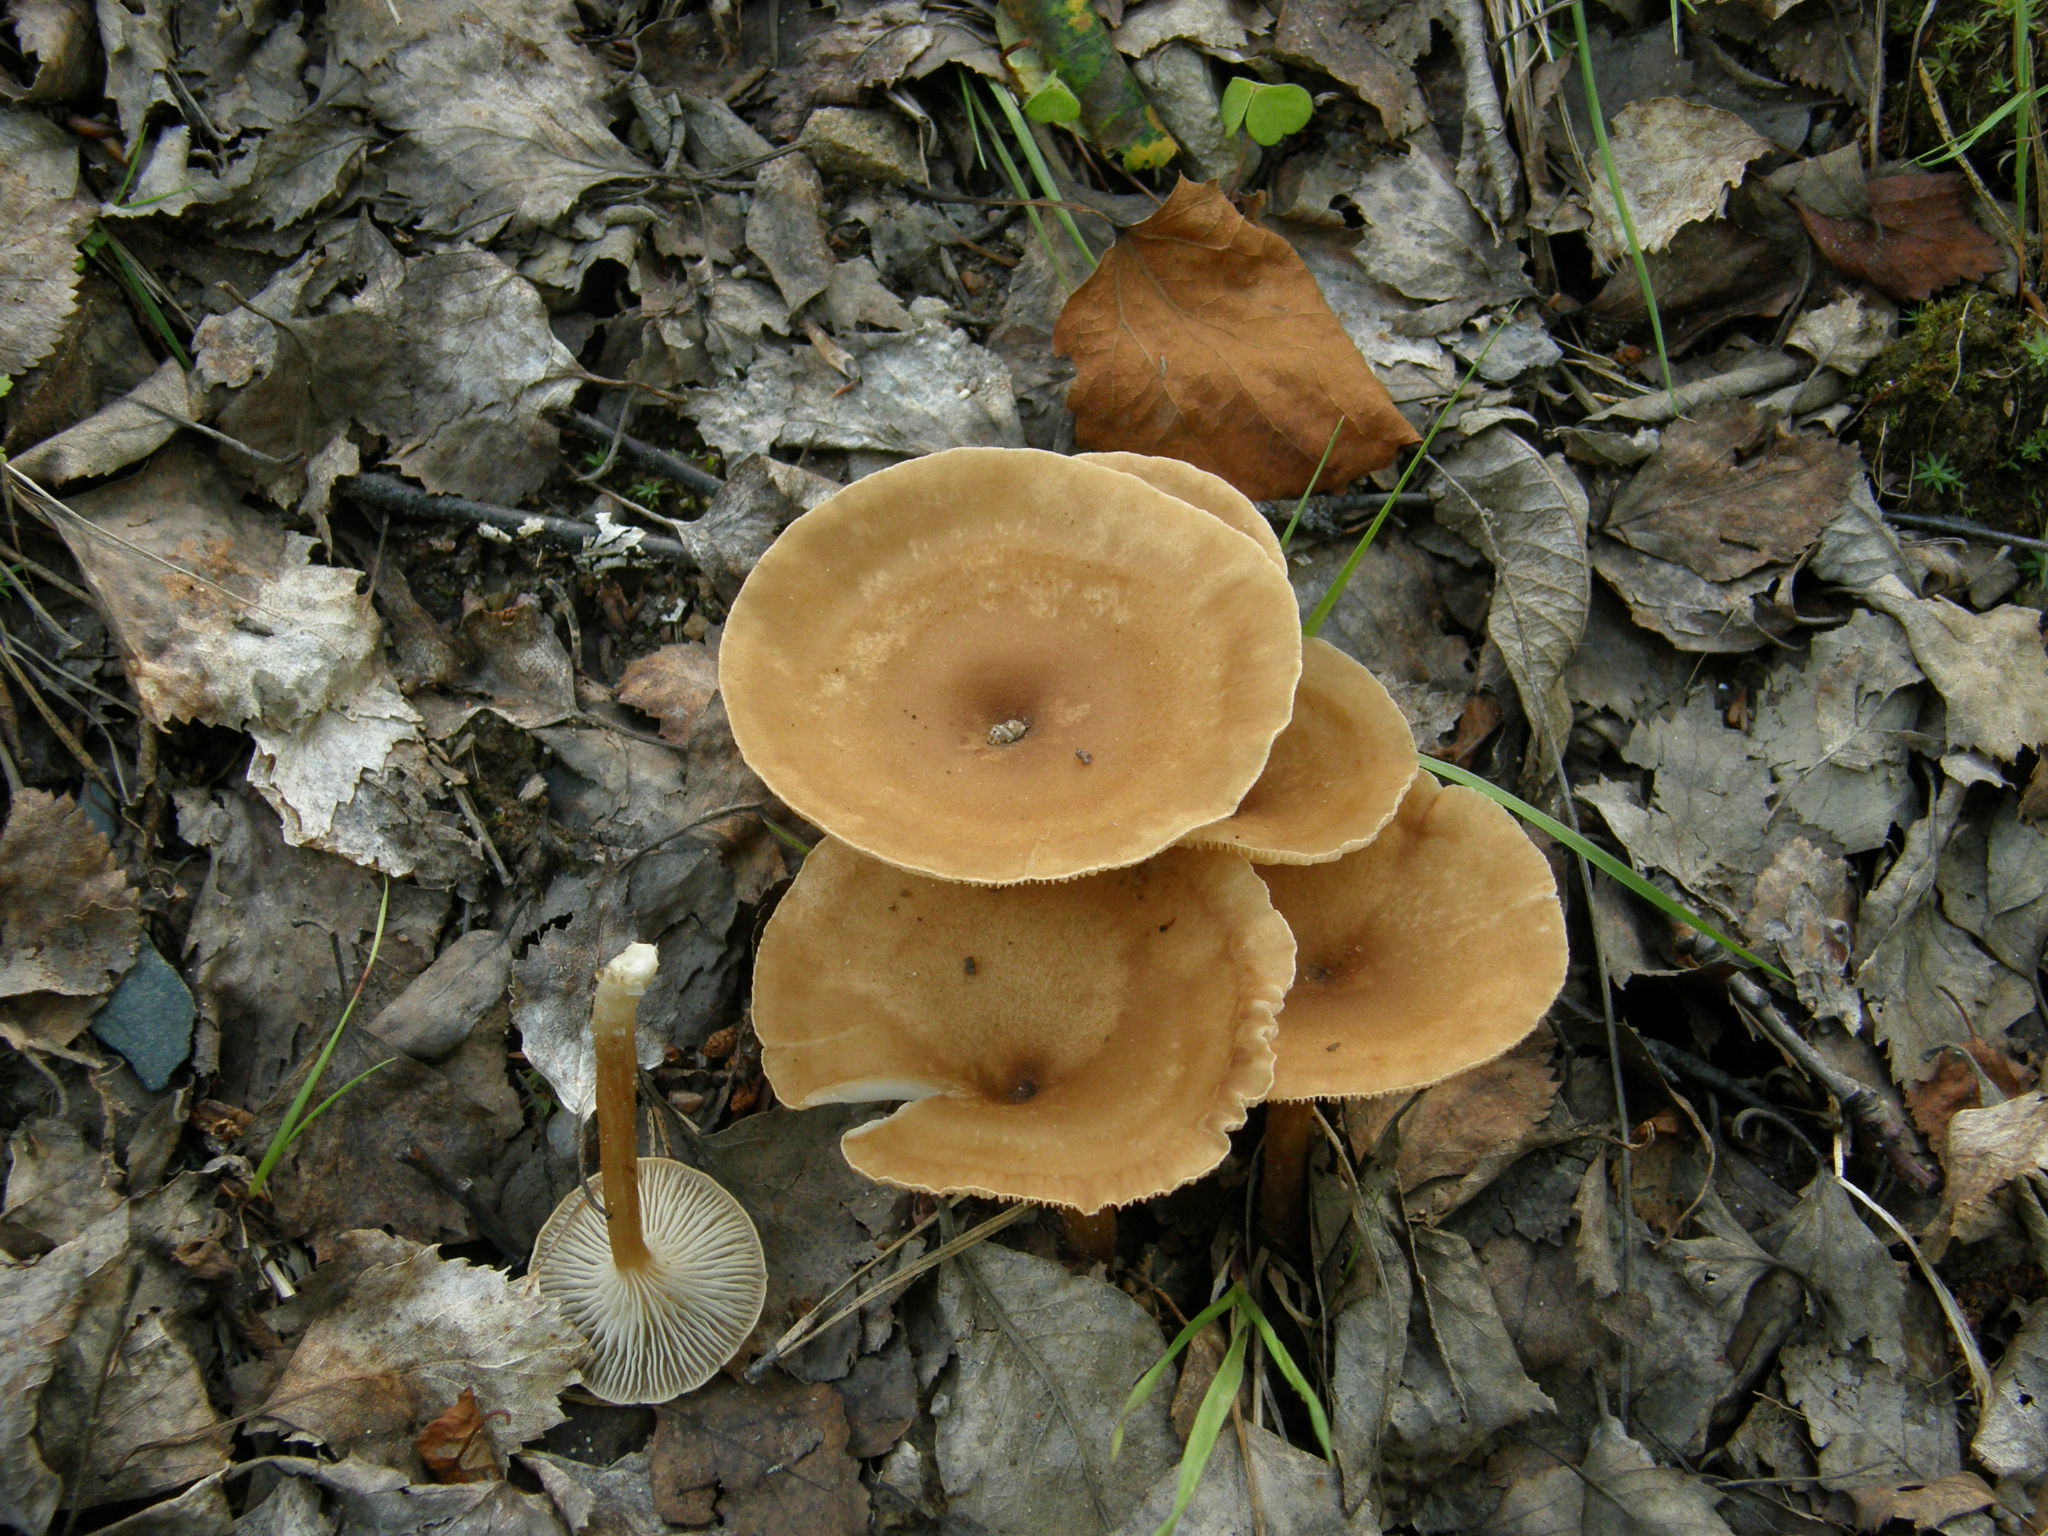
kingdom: Fungi
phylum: Basidiomycota
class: Agaricomycetes
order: Agaricales
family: Tricholomataceae
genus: Infundibulicybe
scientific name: Infundibulicybe gibba
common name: Common funnel
